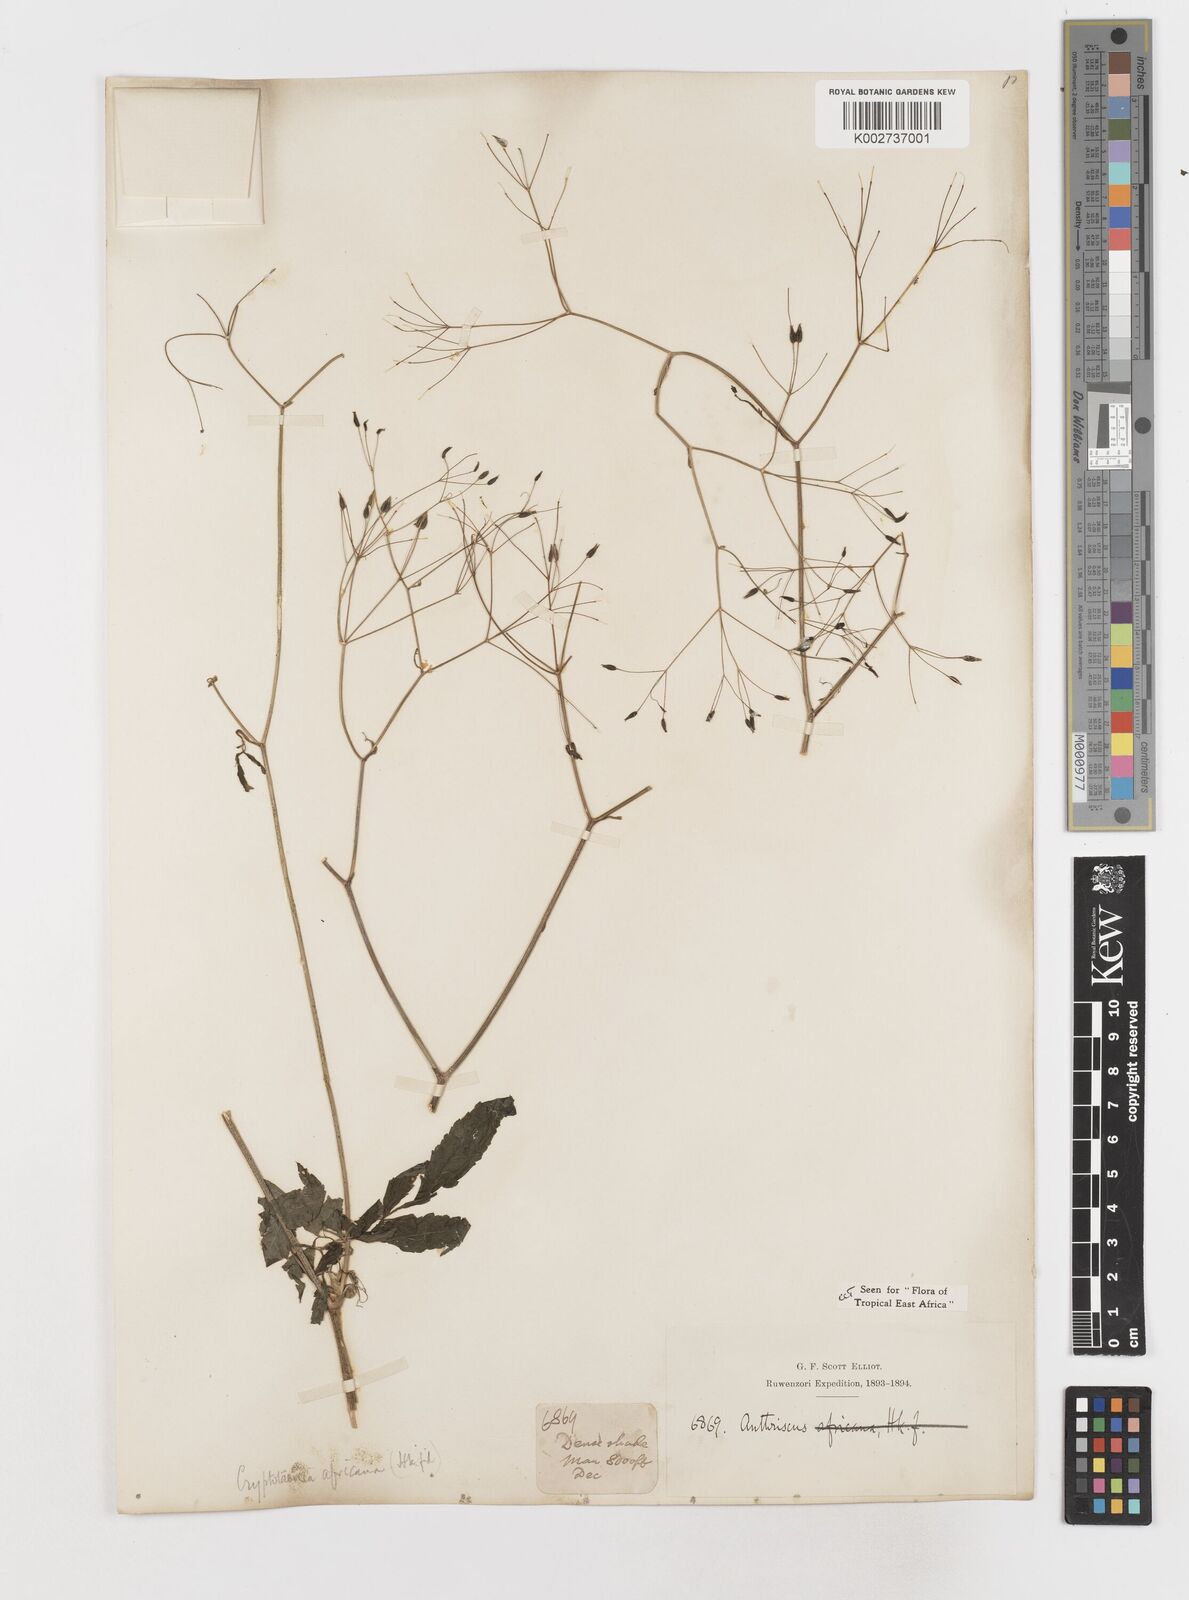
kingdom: Plantae
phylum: Tracheophyta
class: Magnoliopsida
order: Apiales
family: Apiaceae
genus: Cryptotaenia
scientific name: Cryptotaenia africana
